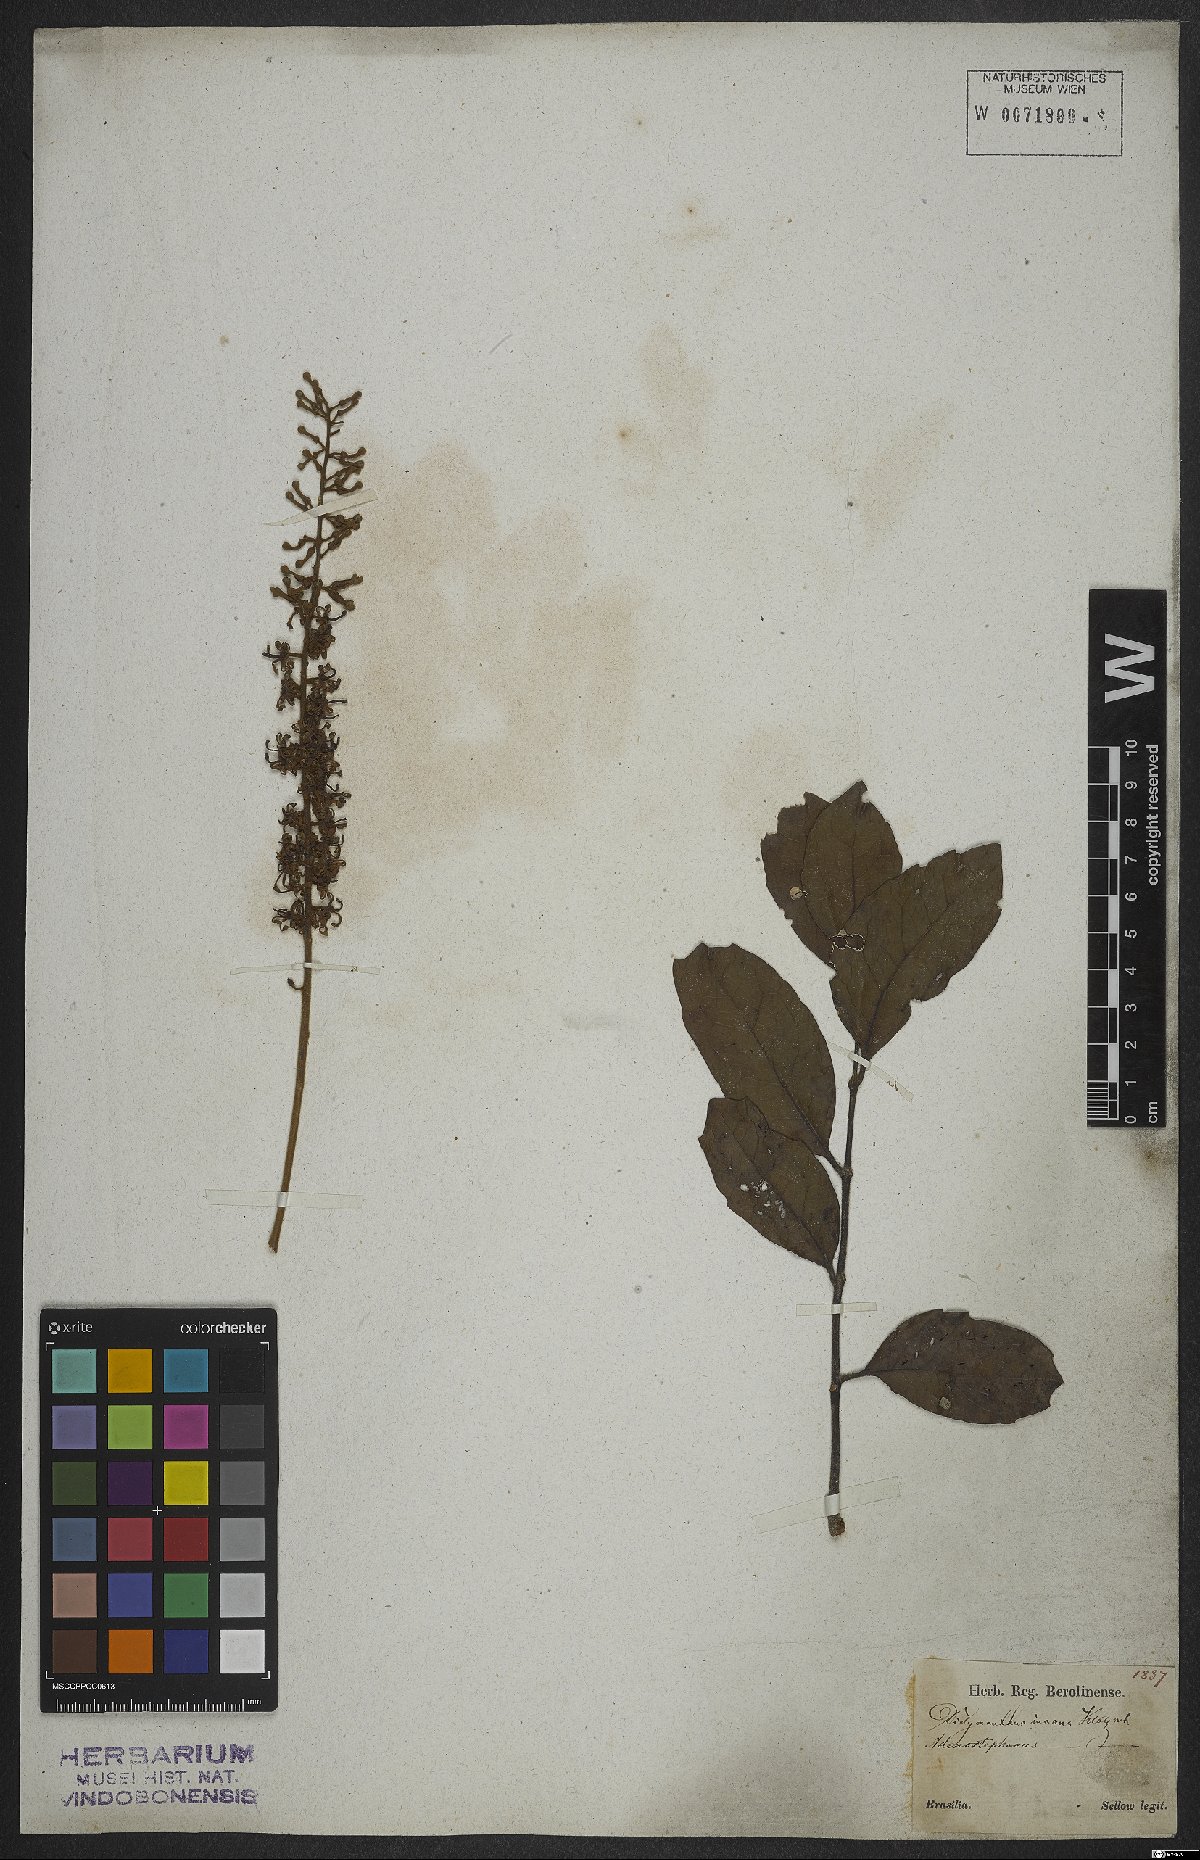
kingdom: Plantae
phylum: Tracheophyta
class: Magnoliopsida
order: Proteales
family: Proteaceae
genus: Euplassa
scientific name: Euplassa incana
